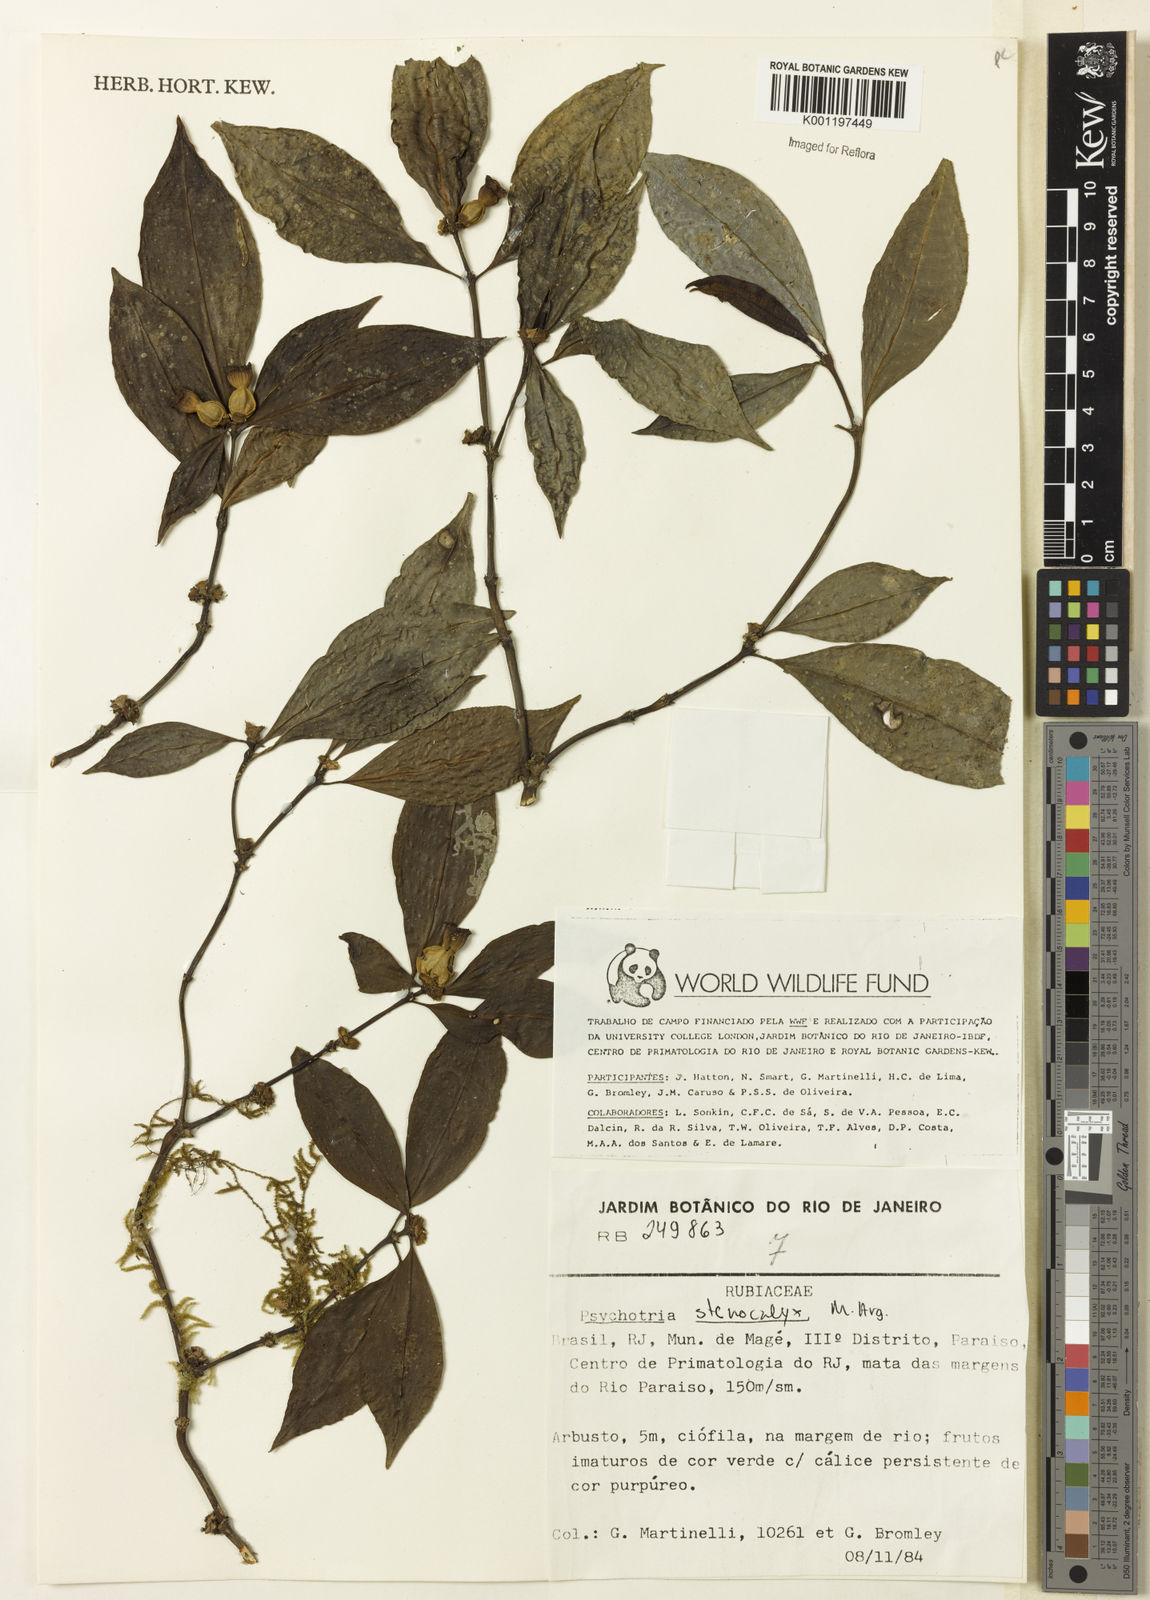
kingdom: Plantae
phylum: Tracheophyta
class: Magnoliopsida
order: Gentianales
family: Rubiaceae
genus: Psychotria
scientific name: Psychotria
